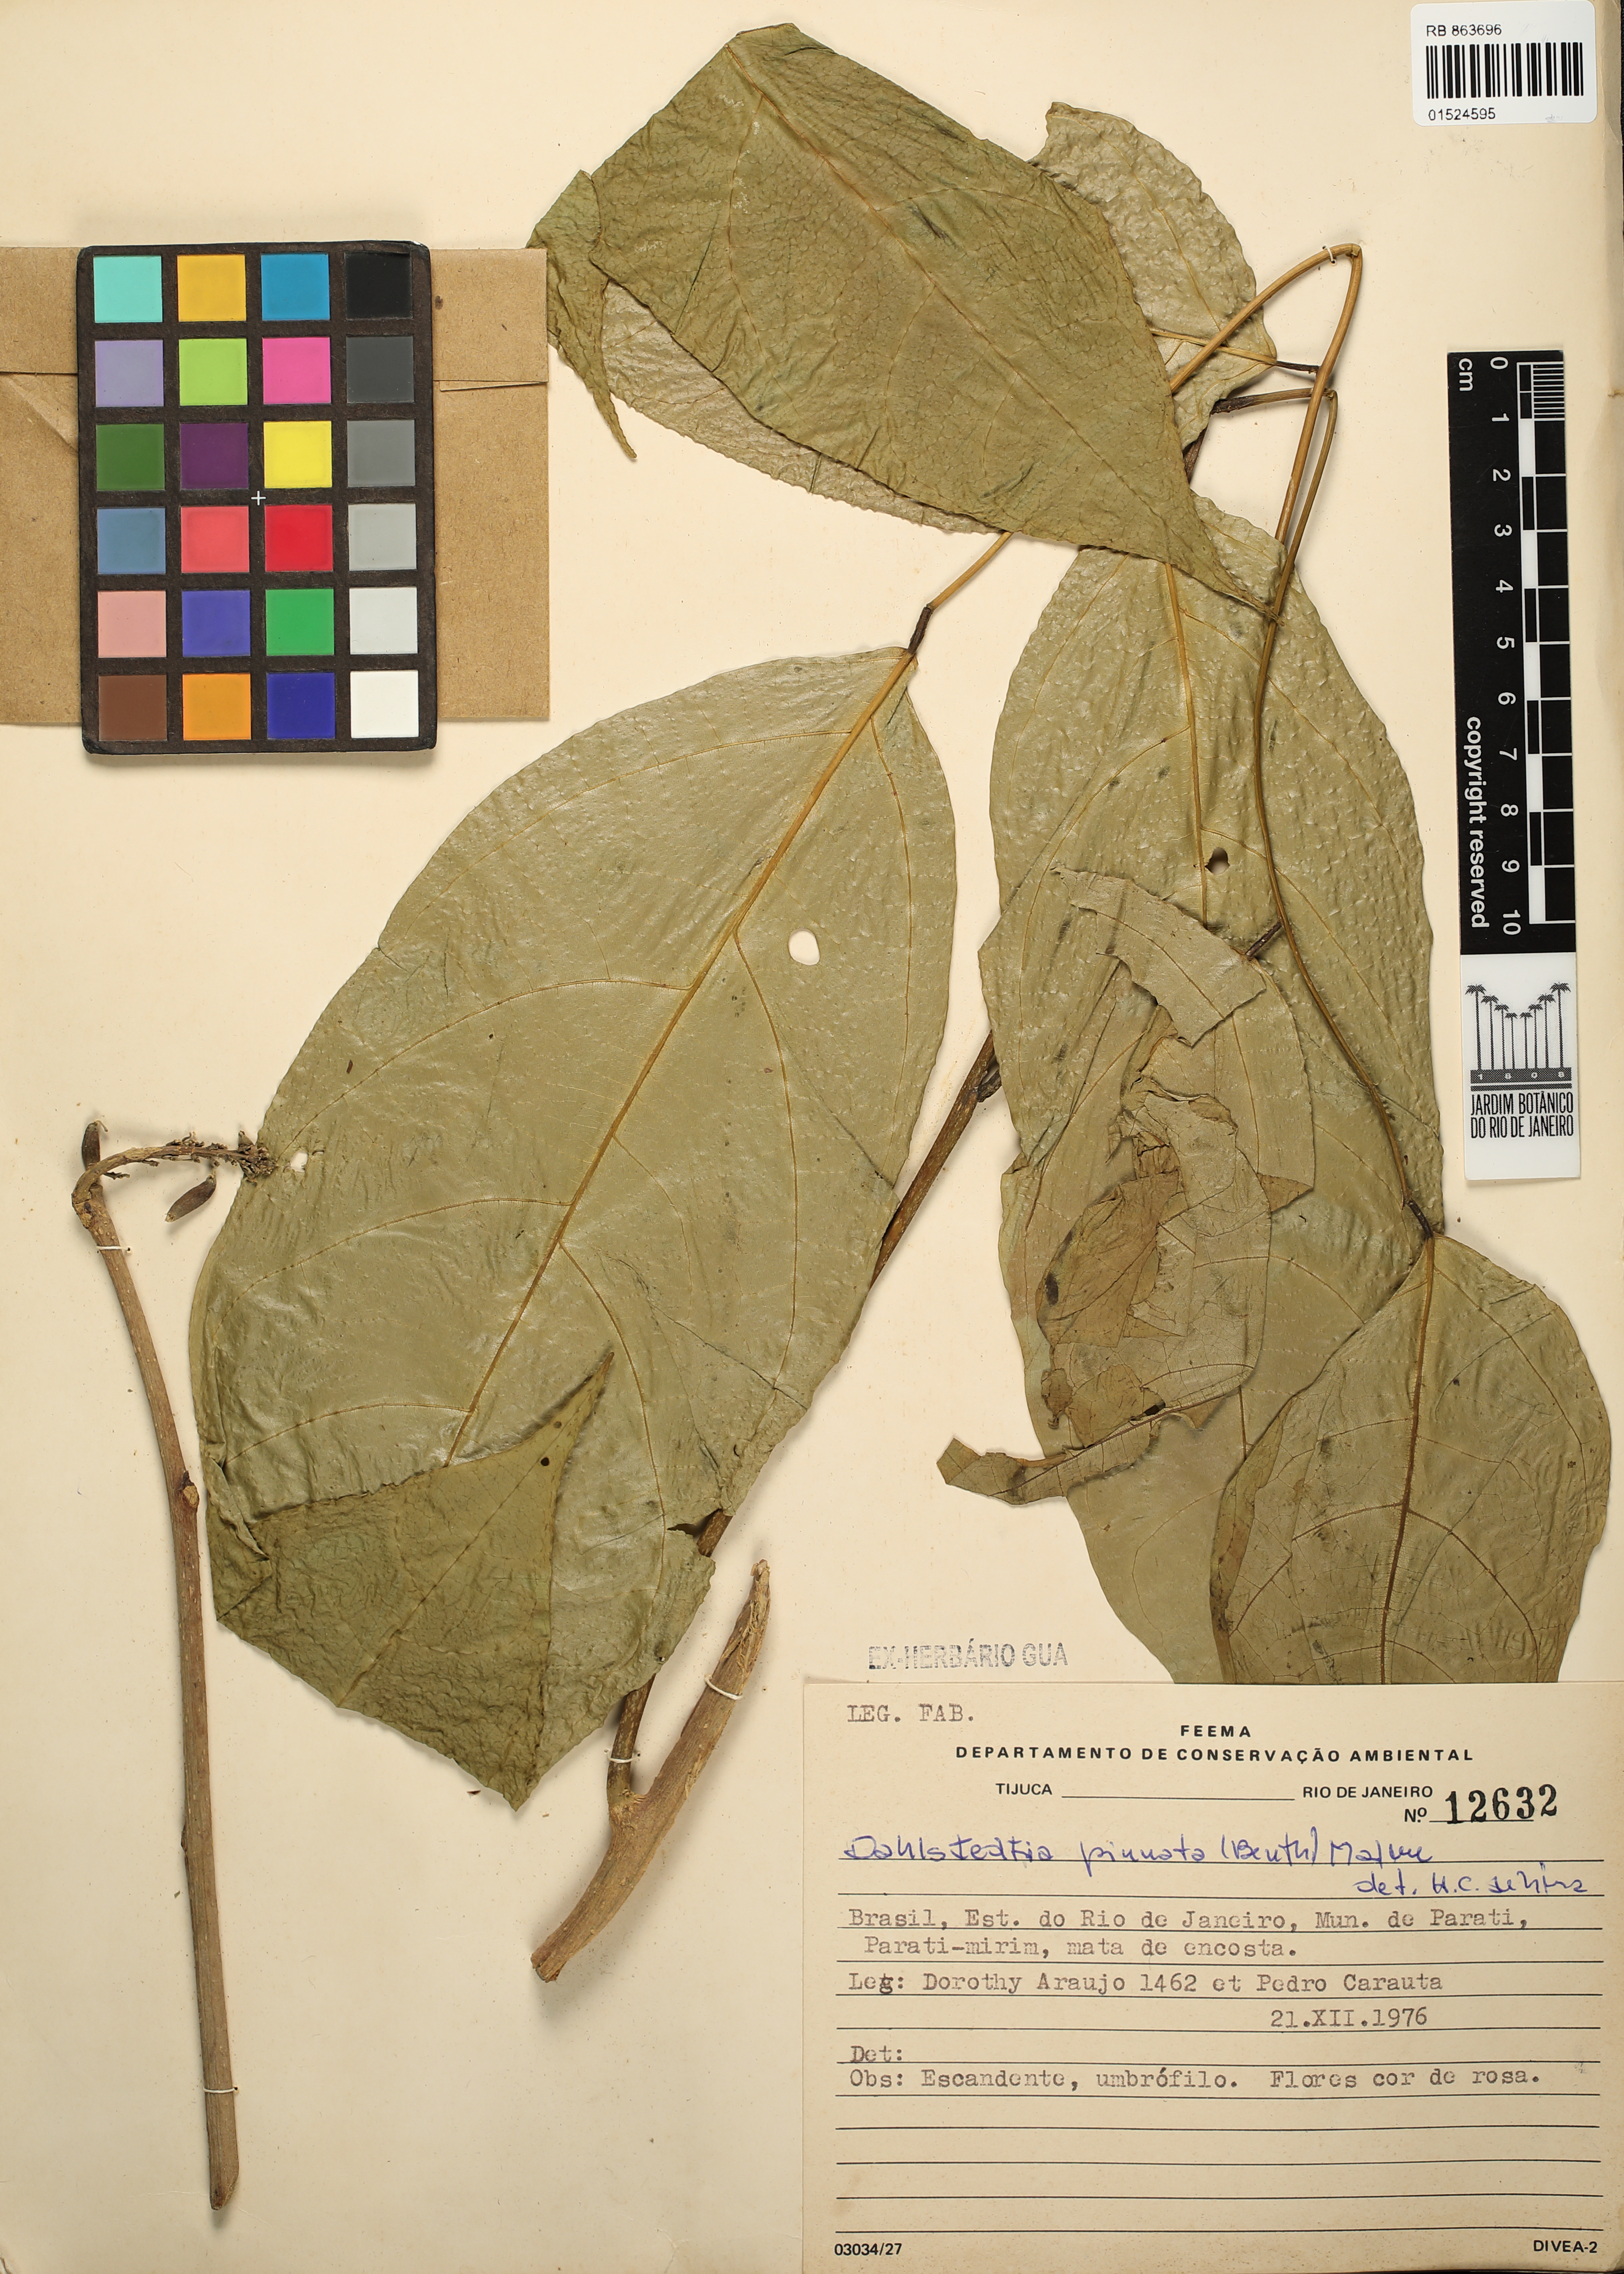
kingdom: Plantae
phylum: Tracheophyta
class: Magnoliopsida
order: Fabales
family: Fabaceae
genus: Dahlstedtia
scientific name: Dahlstedtia pinnata
